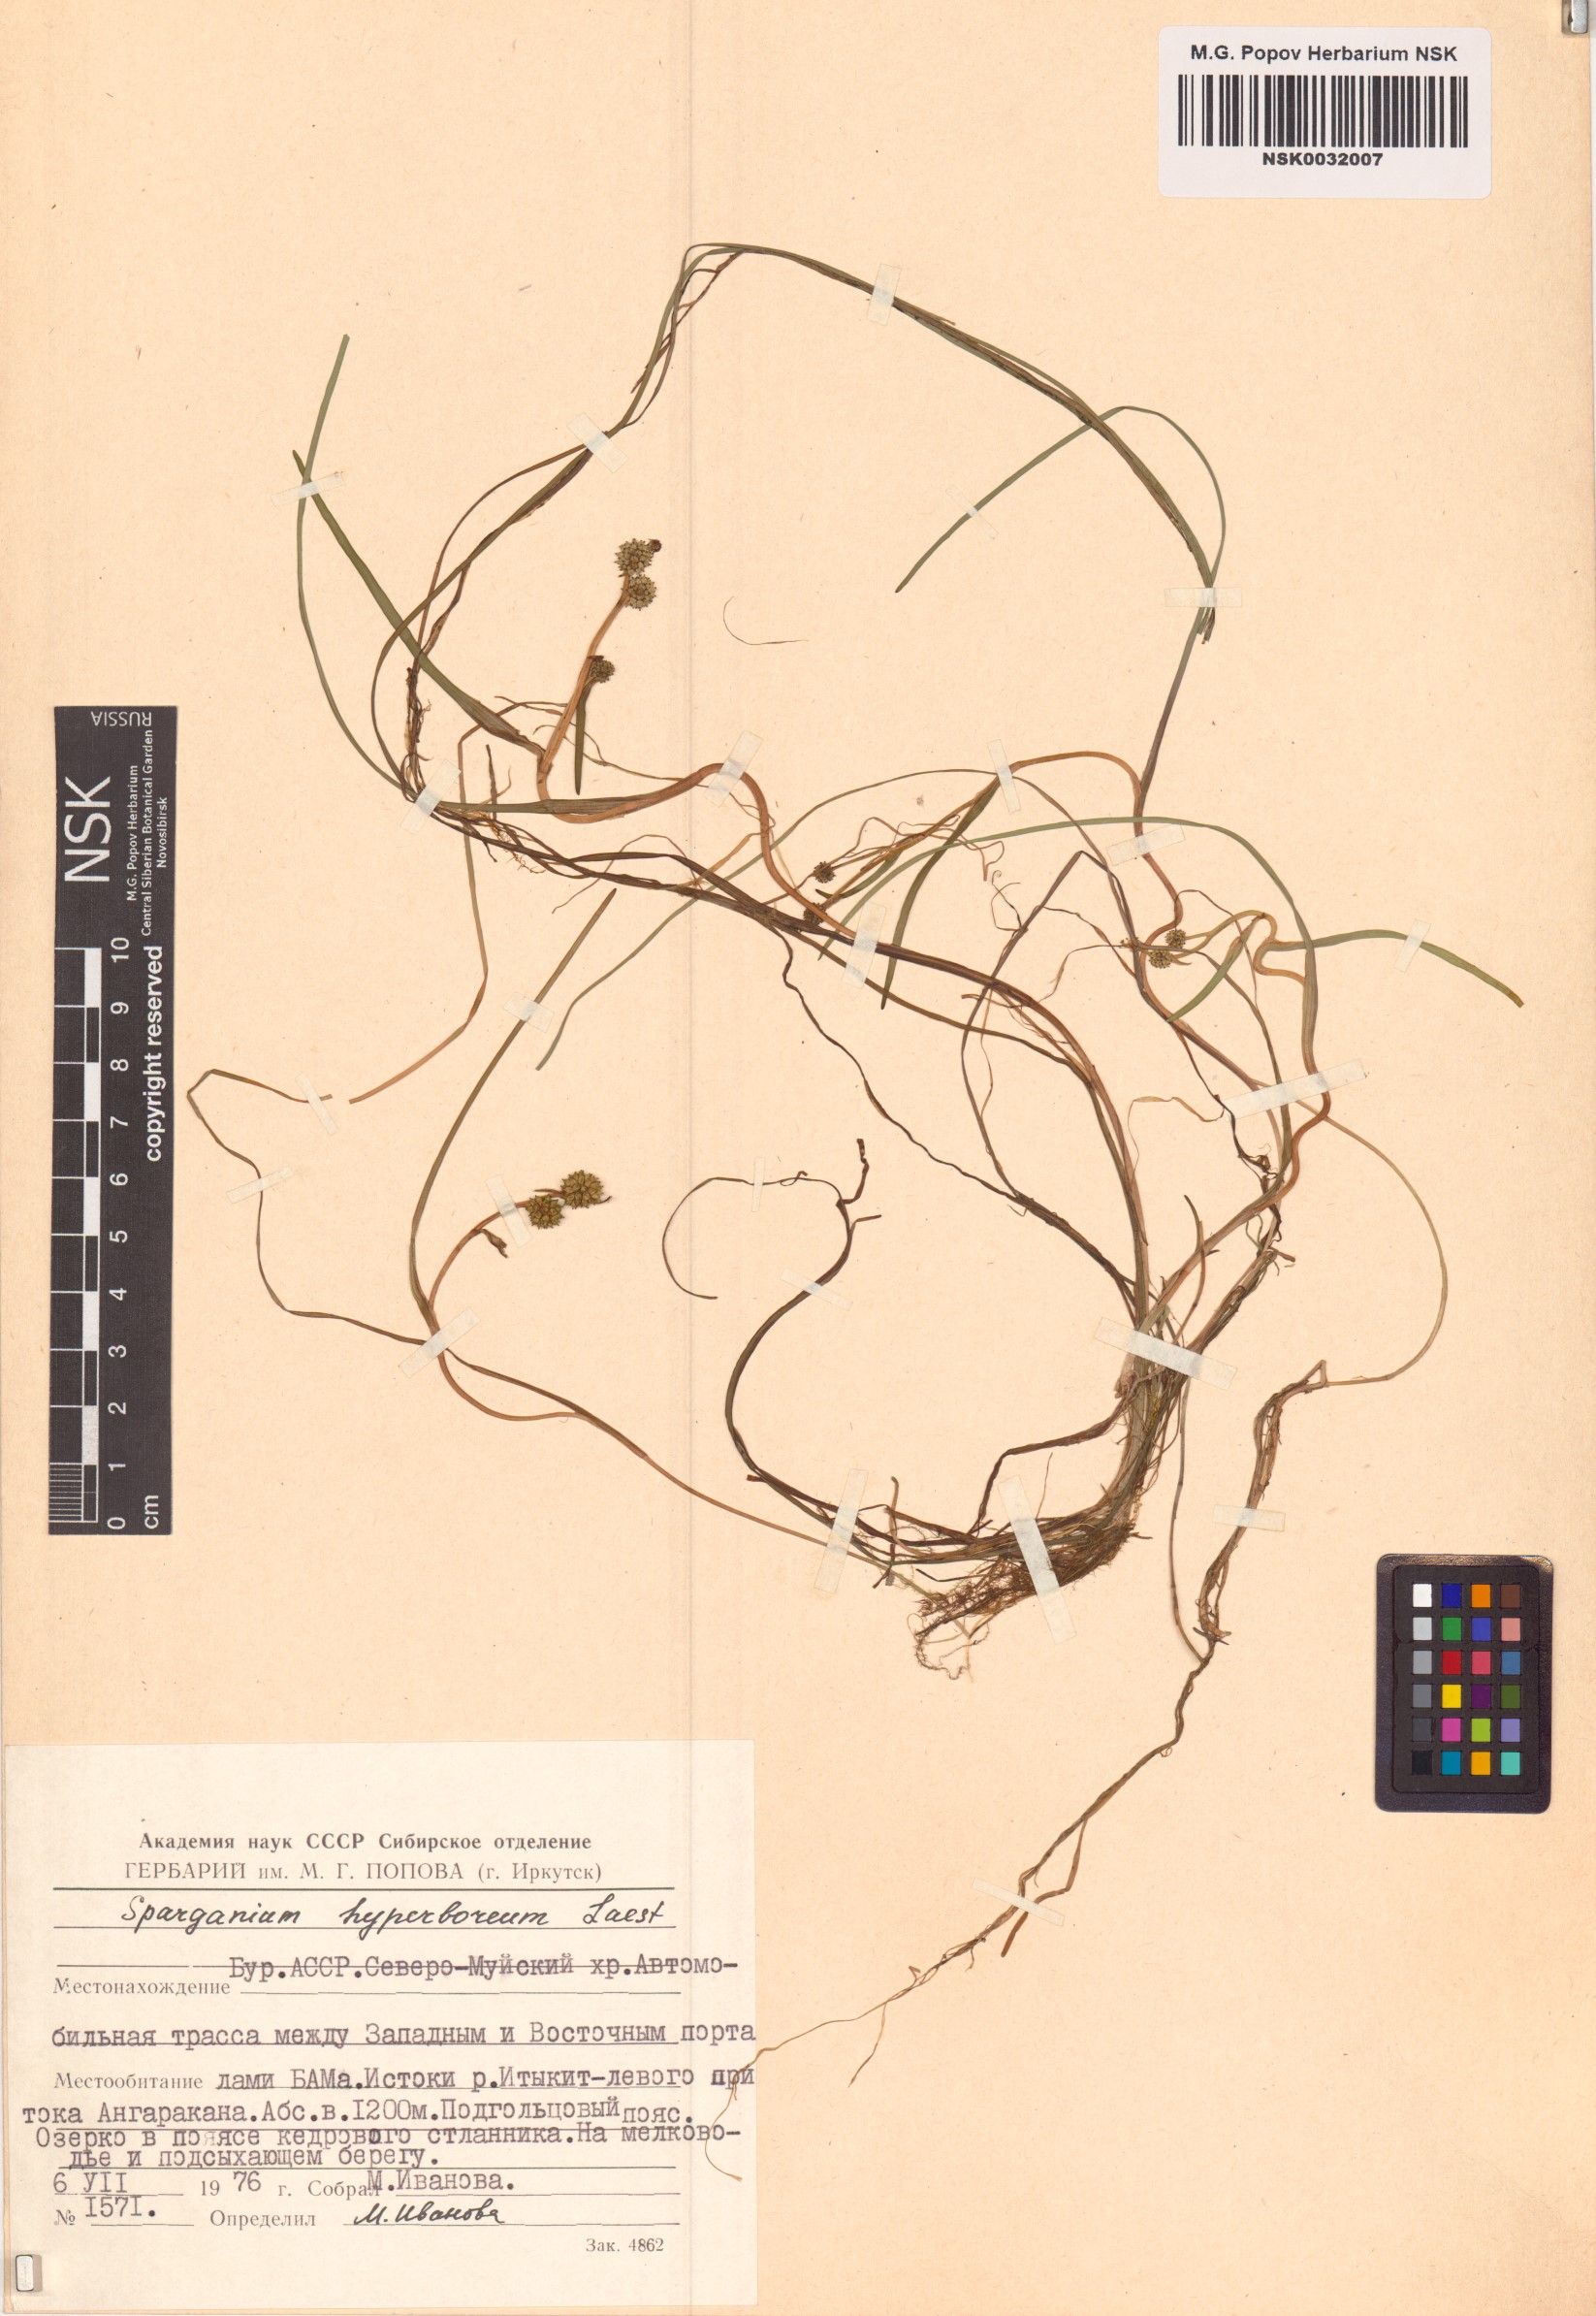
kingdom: Plantae
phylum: Tracheophyta
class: Liliopsida
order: Poales
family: Typhaceae
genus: Sparganium
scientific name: Sparganium hyperboreum
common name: Arctic burreed
